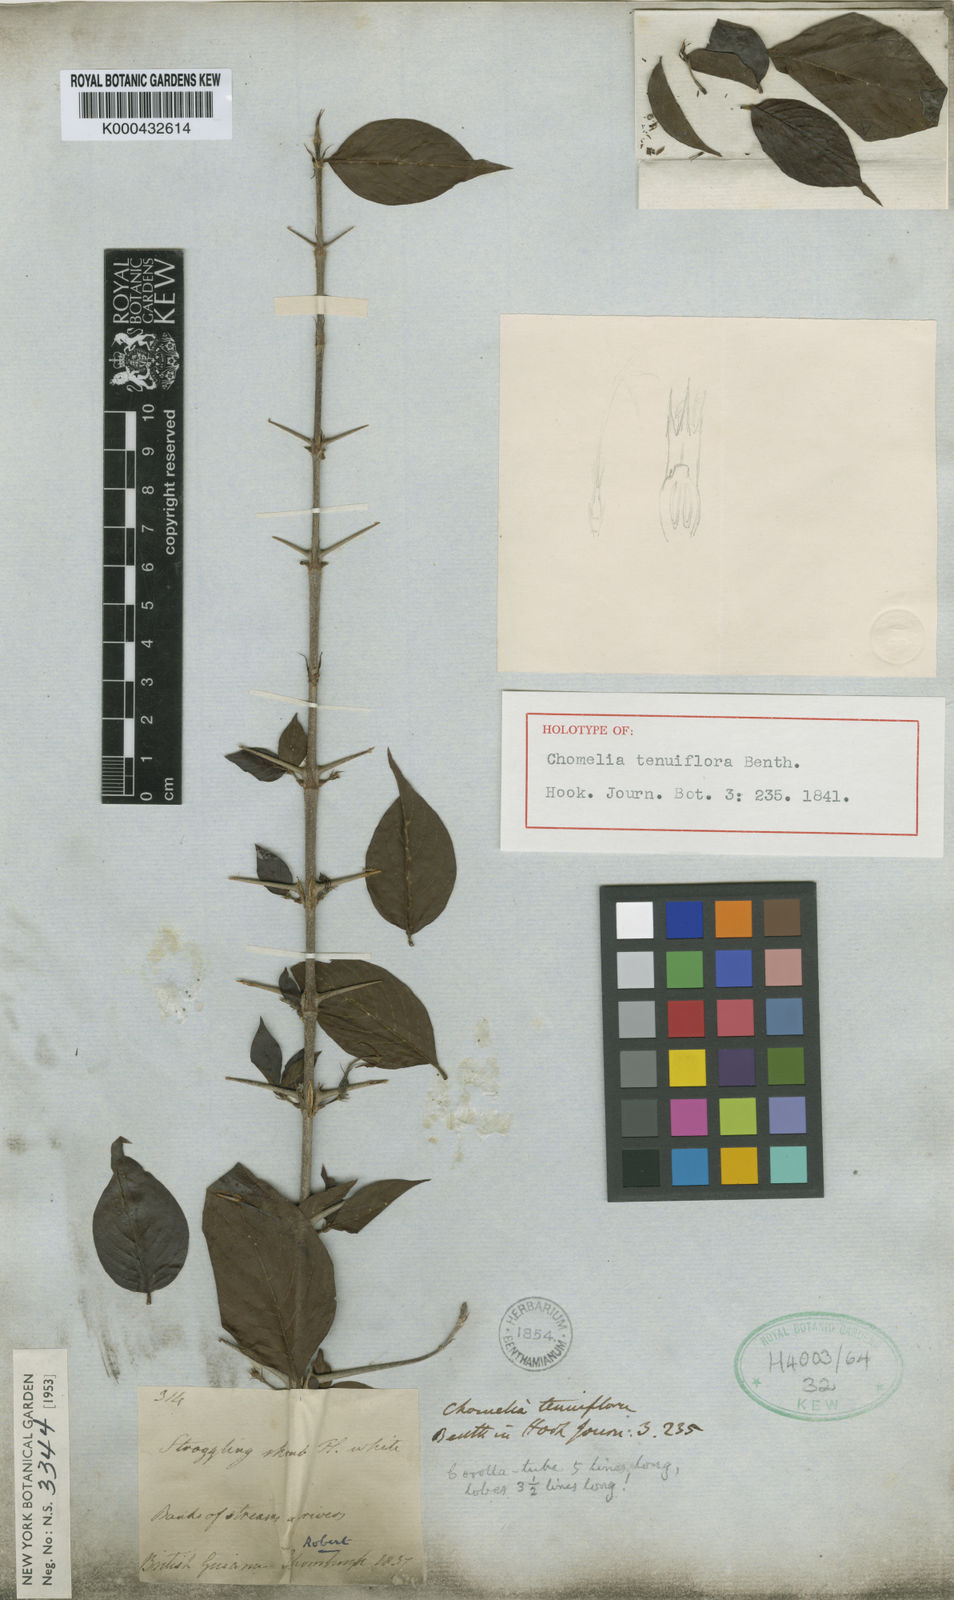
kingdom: Plantae
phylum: Tracheophyta
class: Magnoliopsida
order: Gentianales
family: Rubiaceae
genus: Chomelia
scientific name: Chomelia tenuiflora
